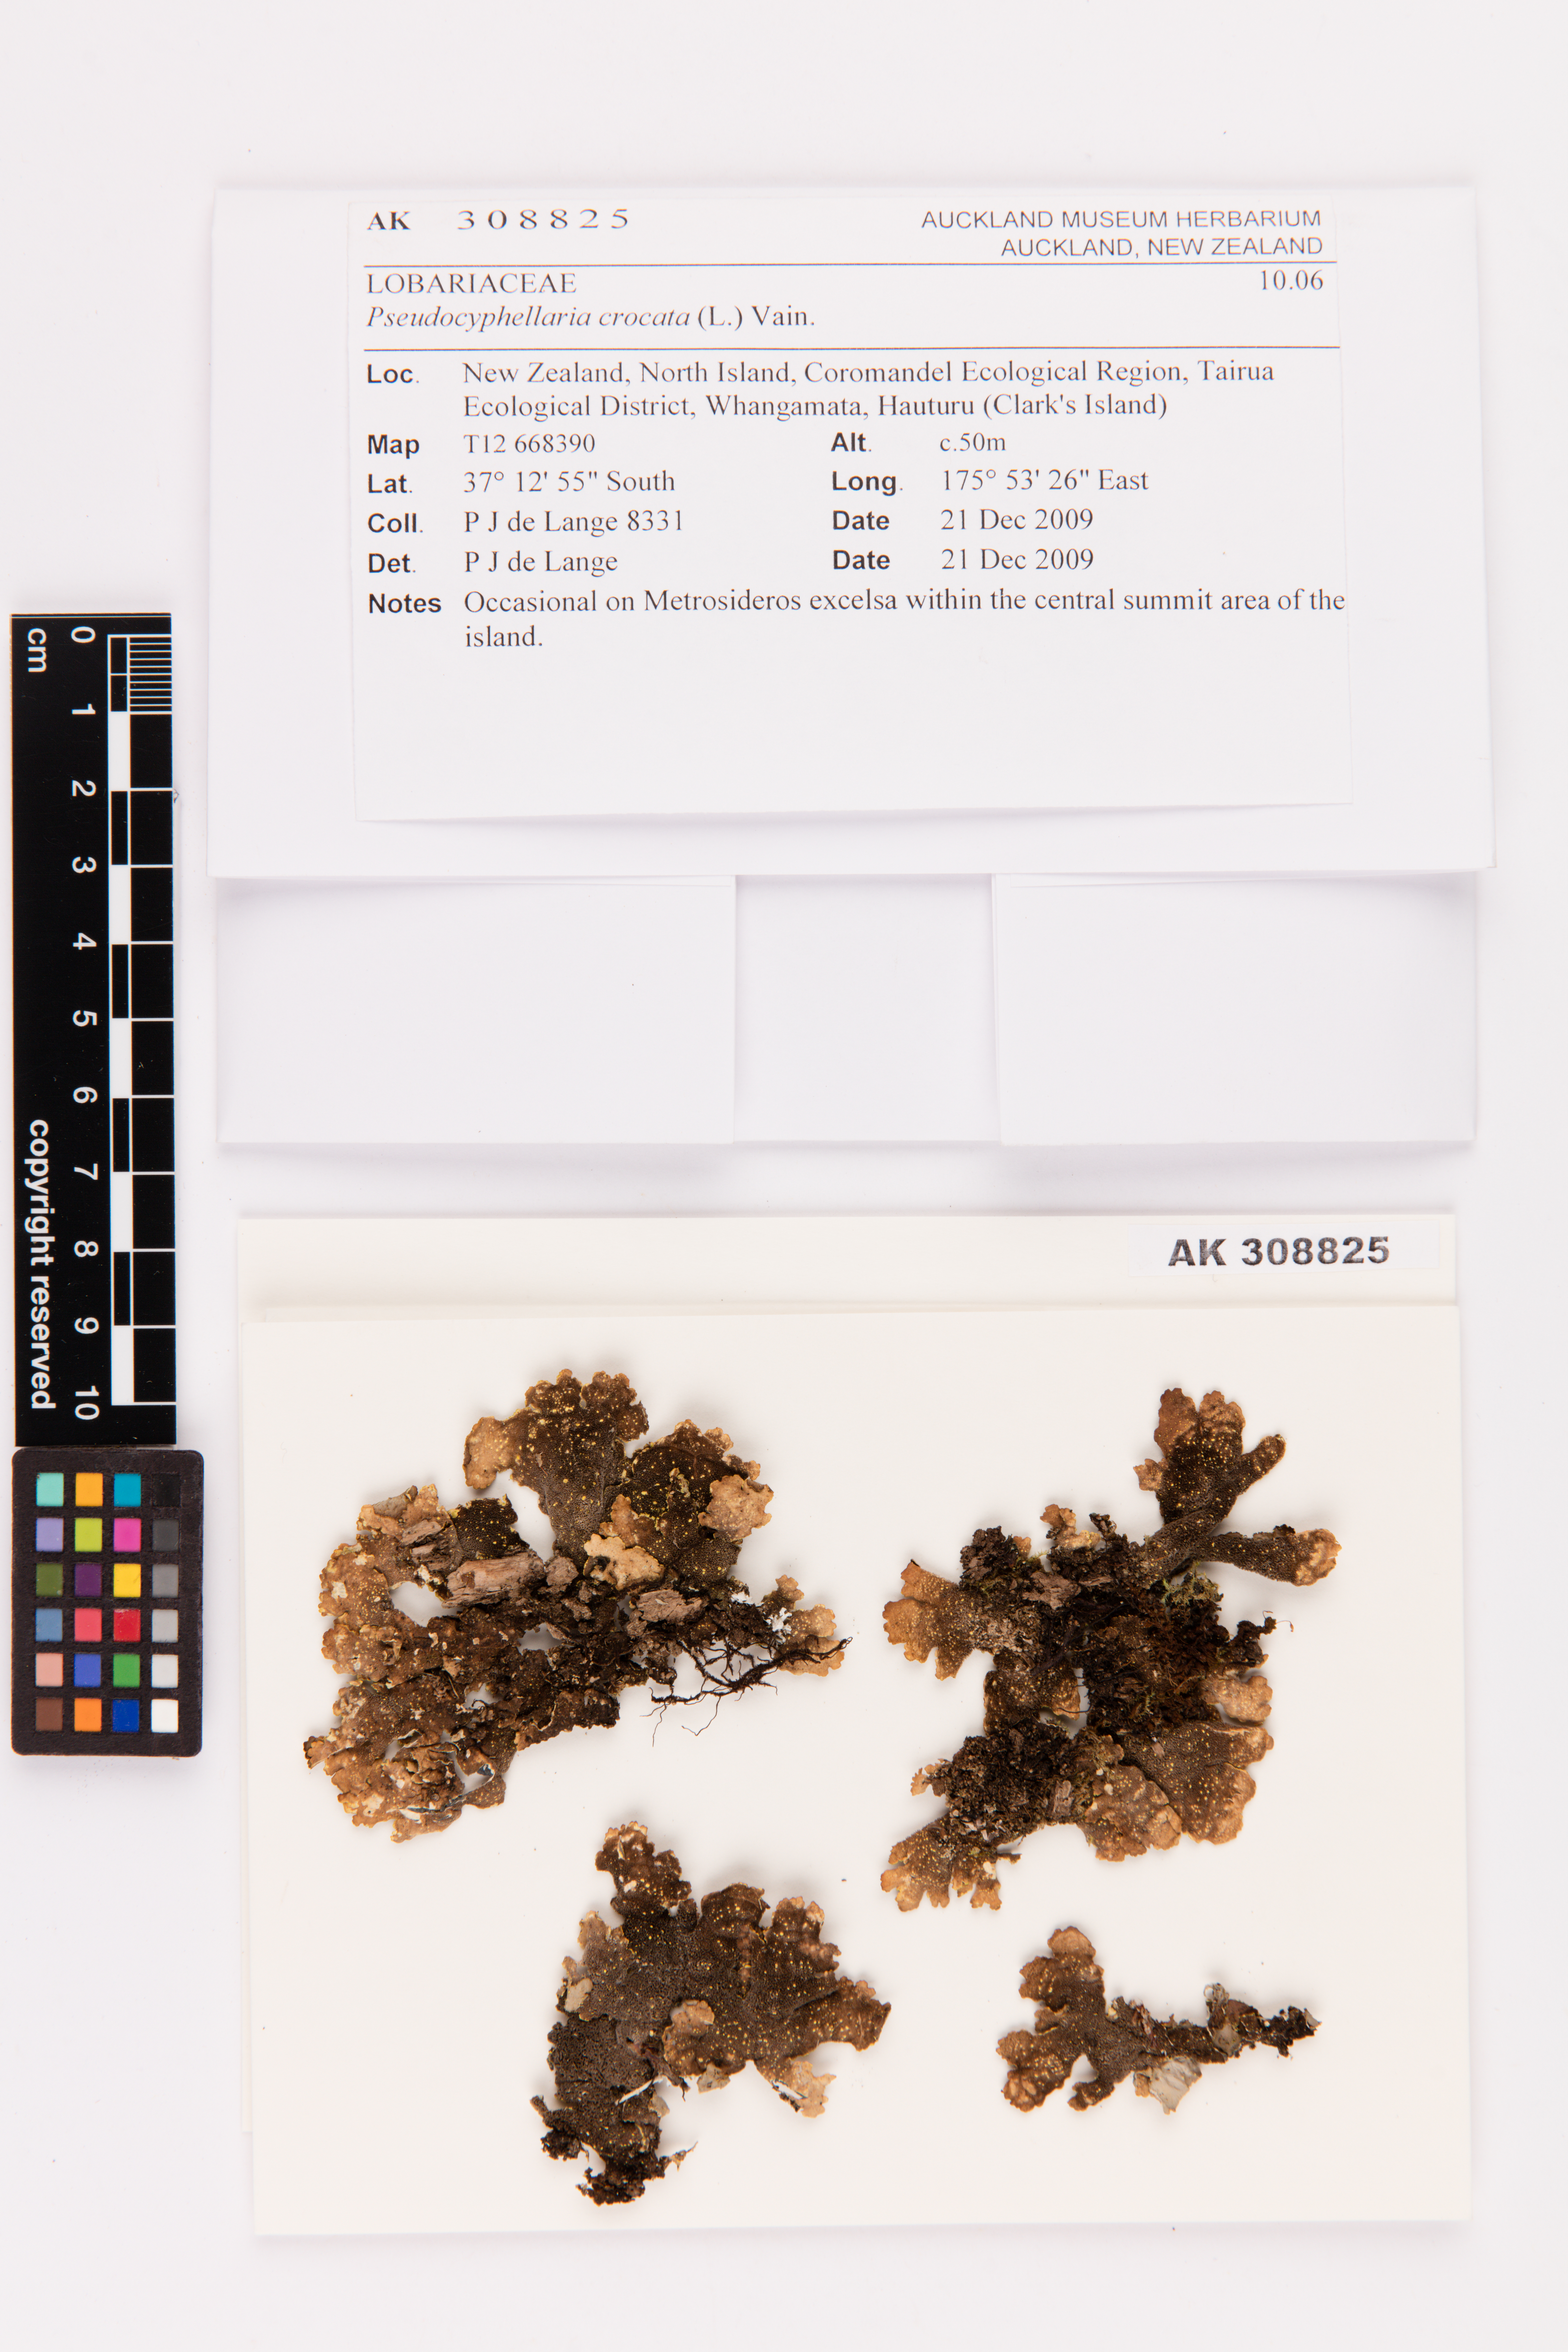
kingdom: Fungi
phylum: Ascomycota
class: Lecanoromycetes
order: Peltigerales
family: Lobariaceae
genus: Pseudocyphellaria
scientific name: Pseudocyphellaria crocata
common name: Golden specklebelly
